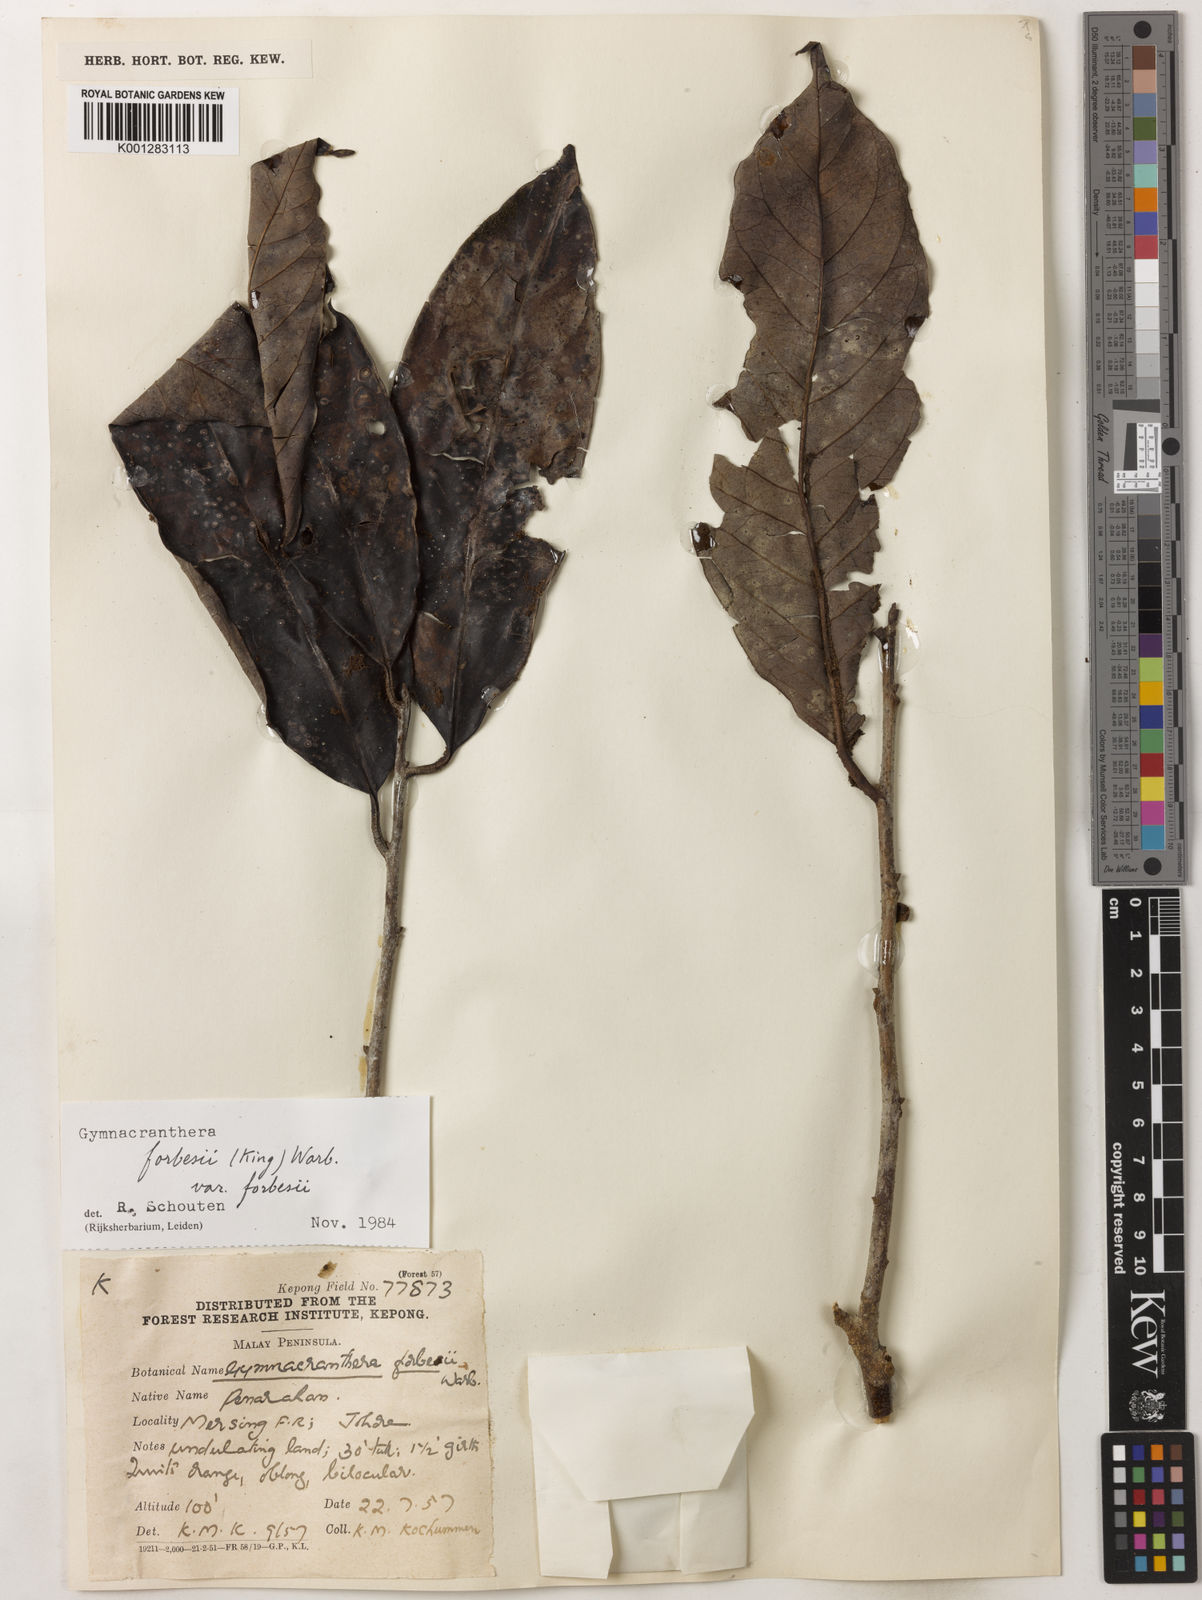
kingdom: Plantae
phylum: Tracheophyta
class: Magnoliopsida
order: Magnoliales
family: Myristicaceae
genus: Gymnacranthera
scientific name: Gymnacranthera forbesii
